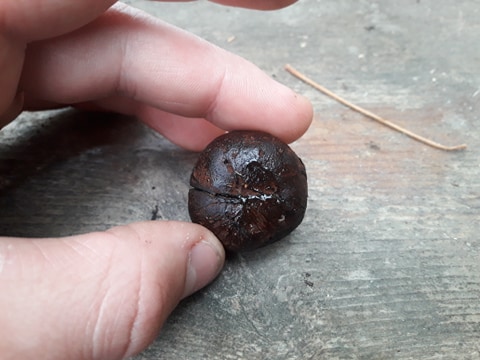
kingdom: Fungi
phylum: Basidiomycota
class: Agaricomycetes
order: Boletales
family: Paxillaceae
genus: Melanogaster
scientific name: Melanogaster
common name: slimtrøffel
